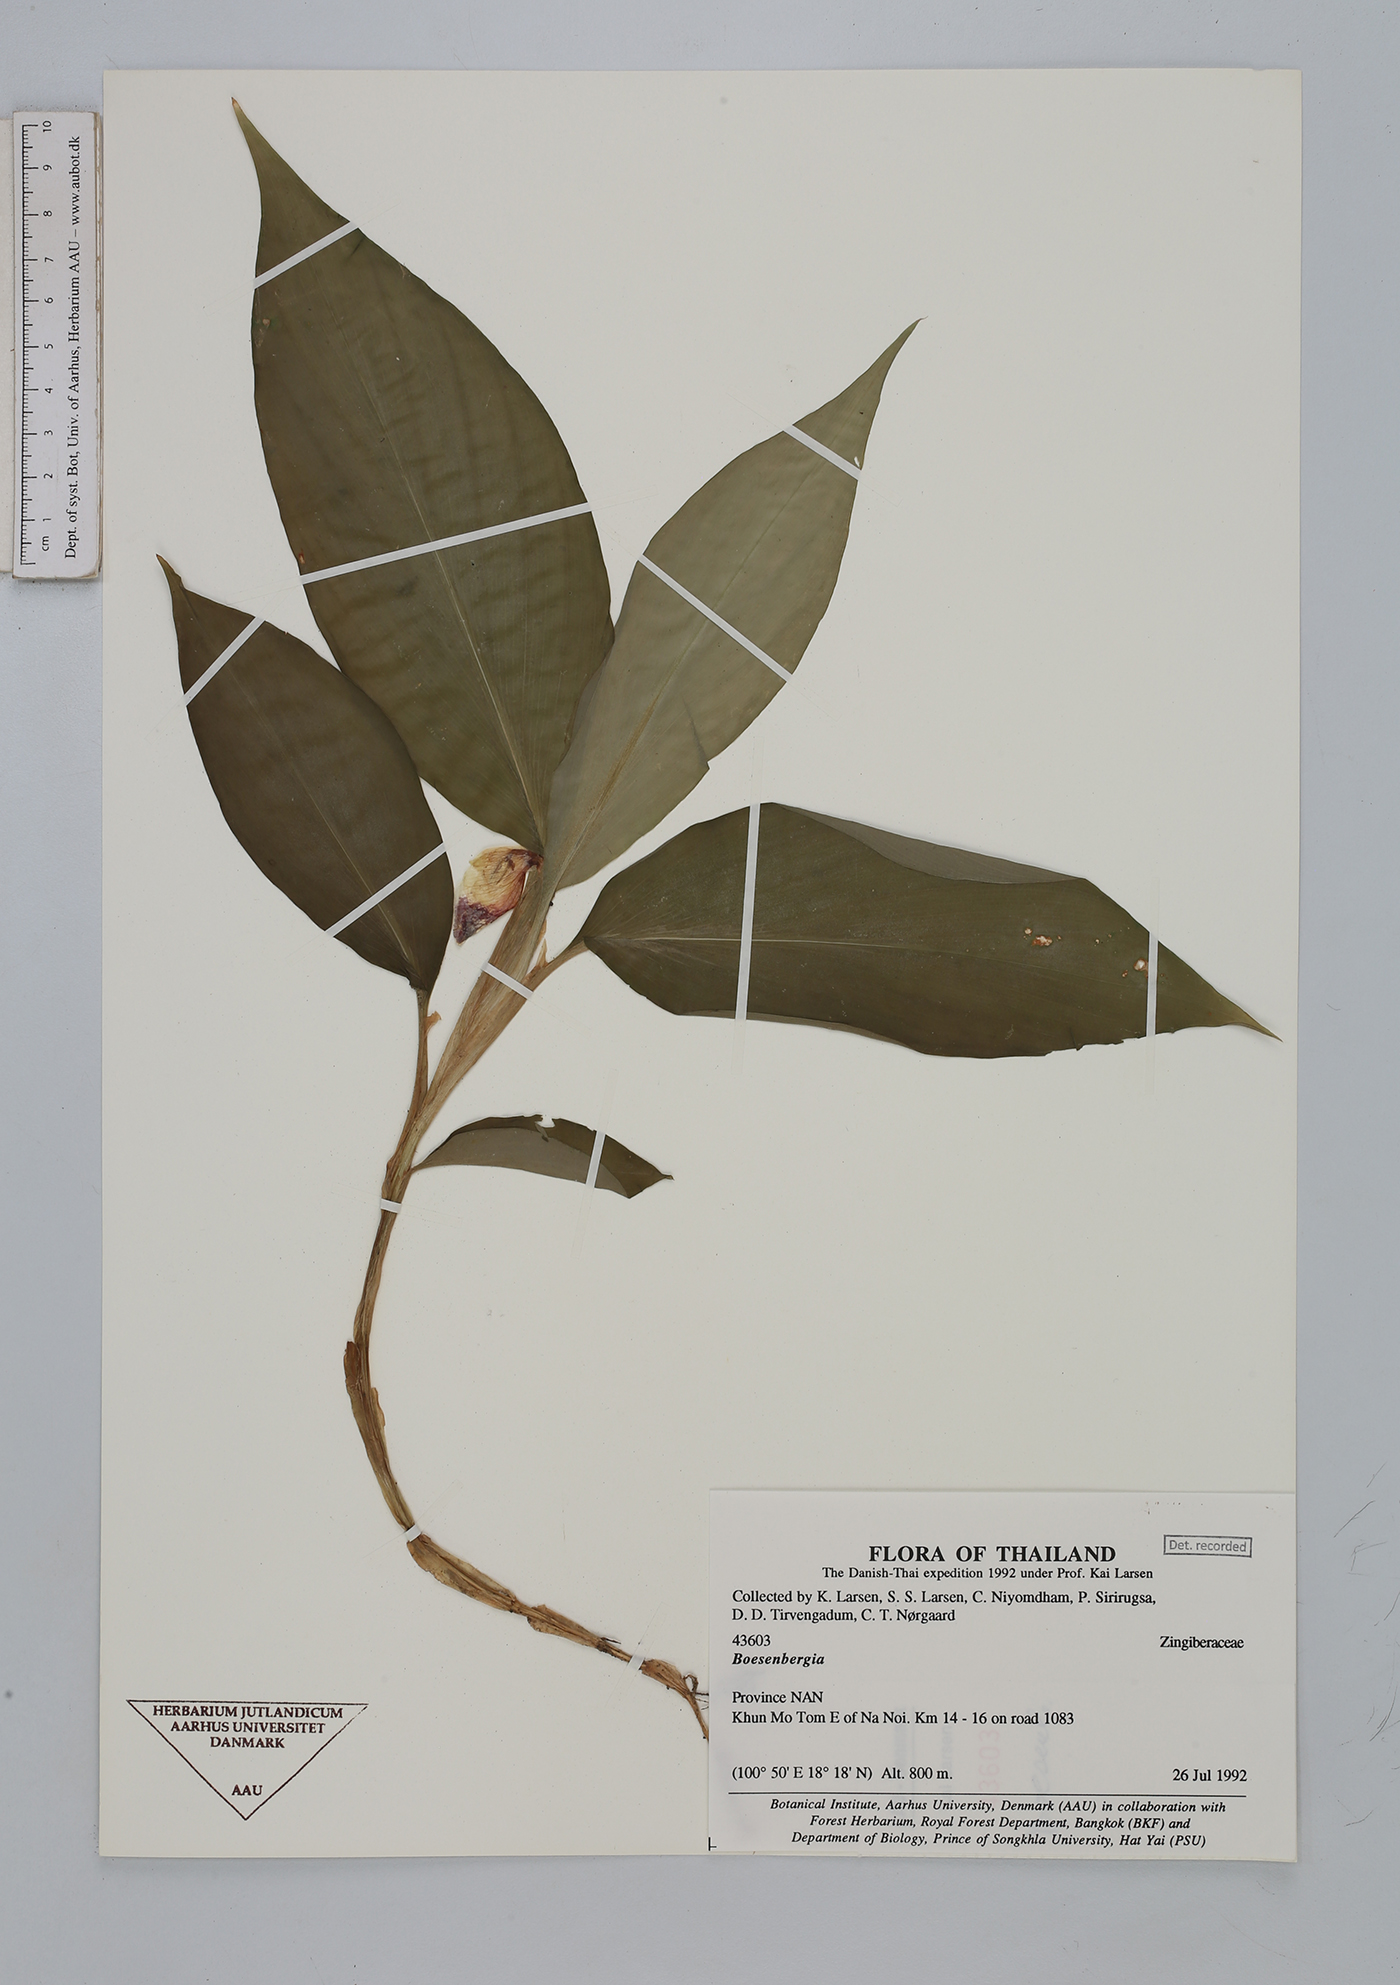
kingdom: Plantae
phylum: Tracheophyta
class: Liliopsida
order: Zingiberales
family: Zingiberaceae
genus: Boesenbergia
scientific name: Boesenbergia
